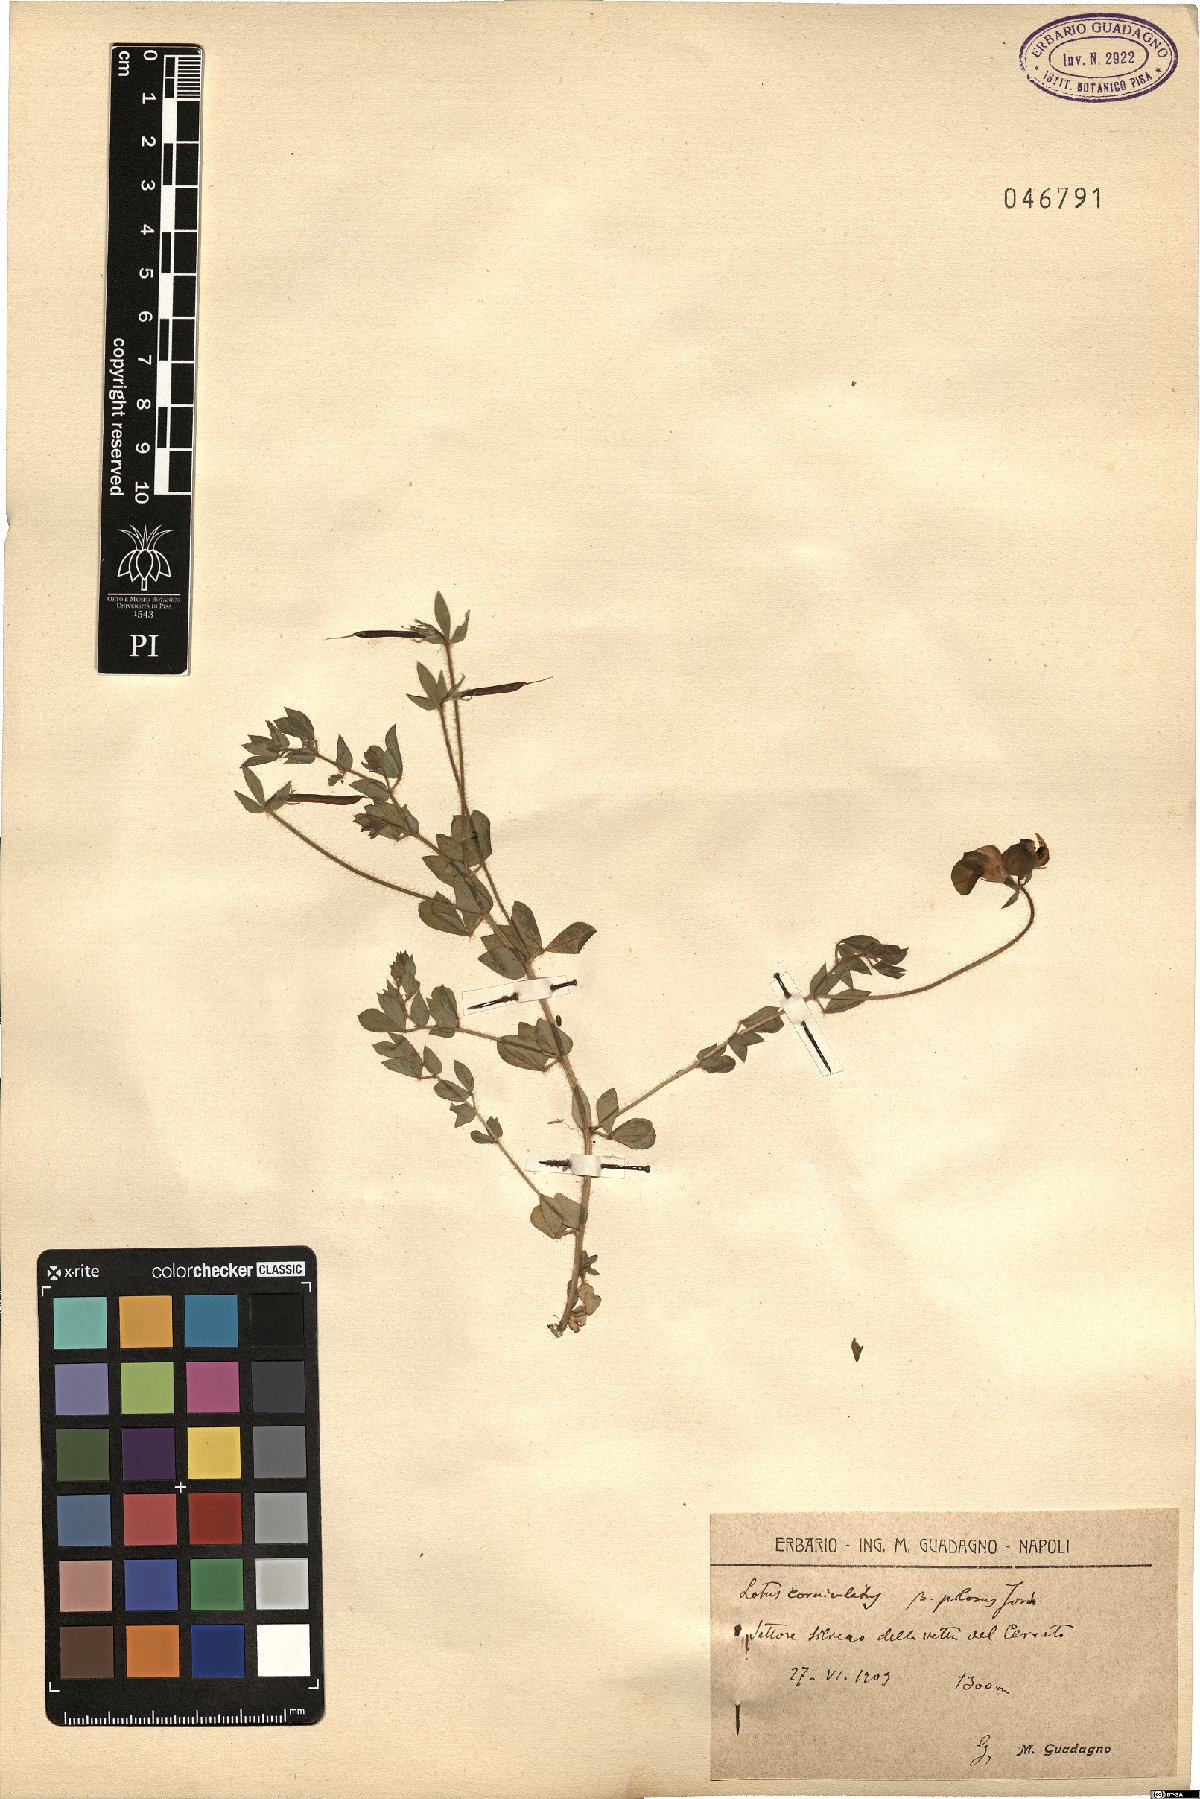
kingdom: Plantae
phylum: Tracheophyta
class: Magnoliopsida
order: Fabales
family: Fabaceae
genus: Lotus
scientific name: Lotus corniculatus
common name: Common bird's-foot-trefoil
